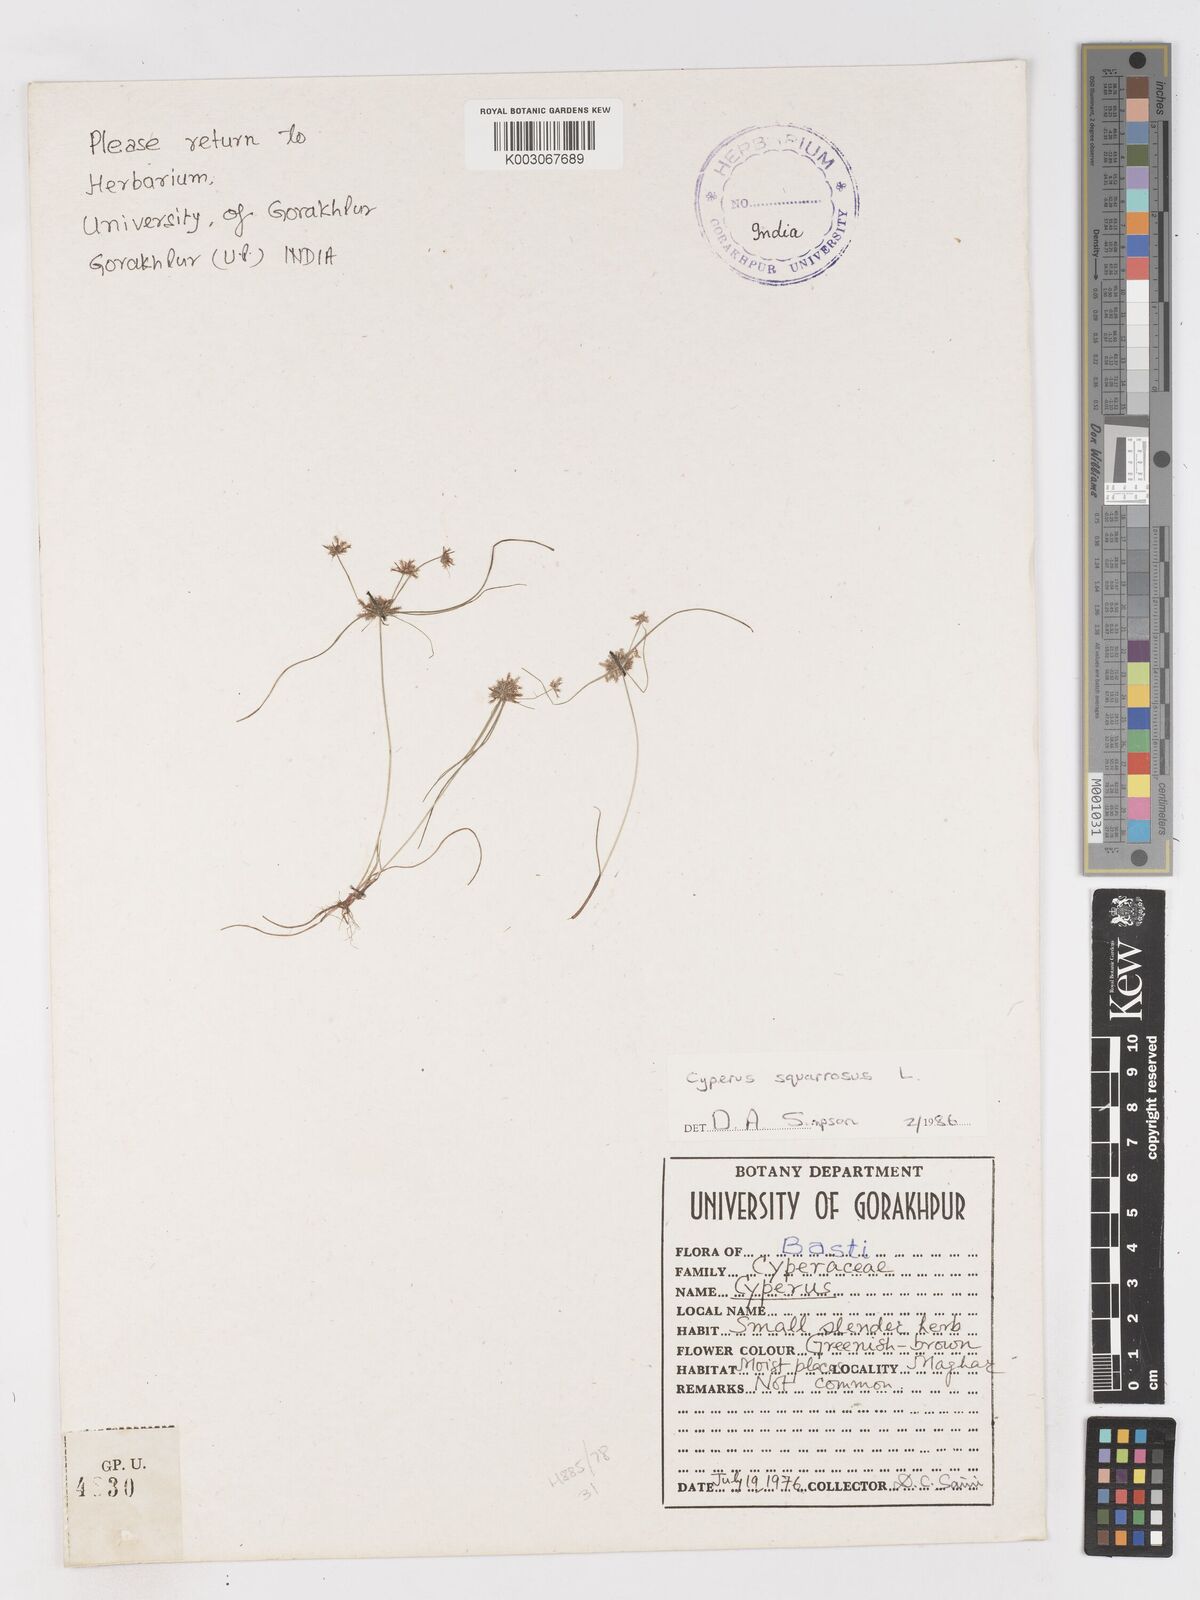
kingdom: Plantae
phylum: Tracheophyta
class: Liliopsida
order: Poales
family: Cyperaceae
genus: Cyperus
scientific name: Cyperus squarrosus
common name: Awned cyperus
